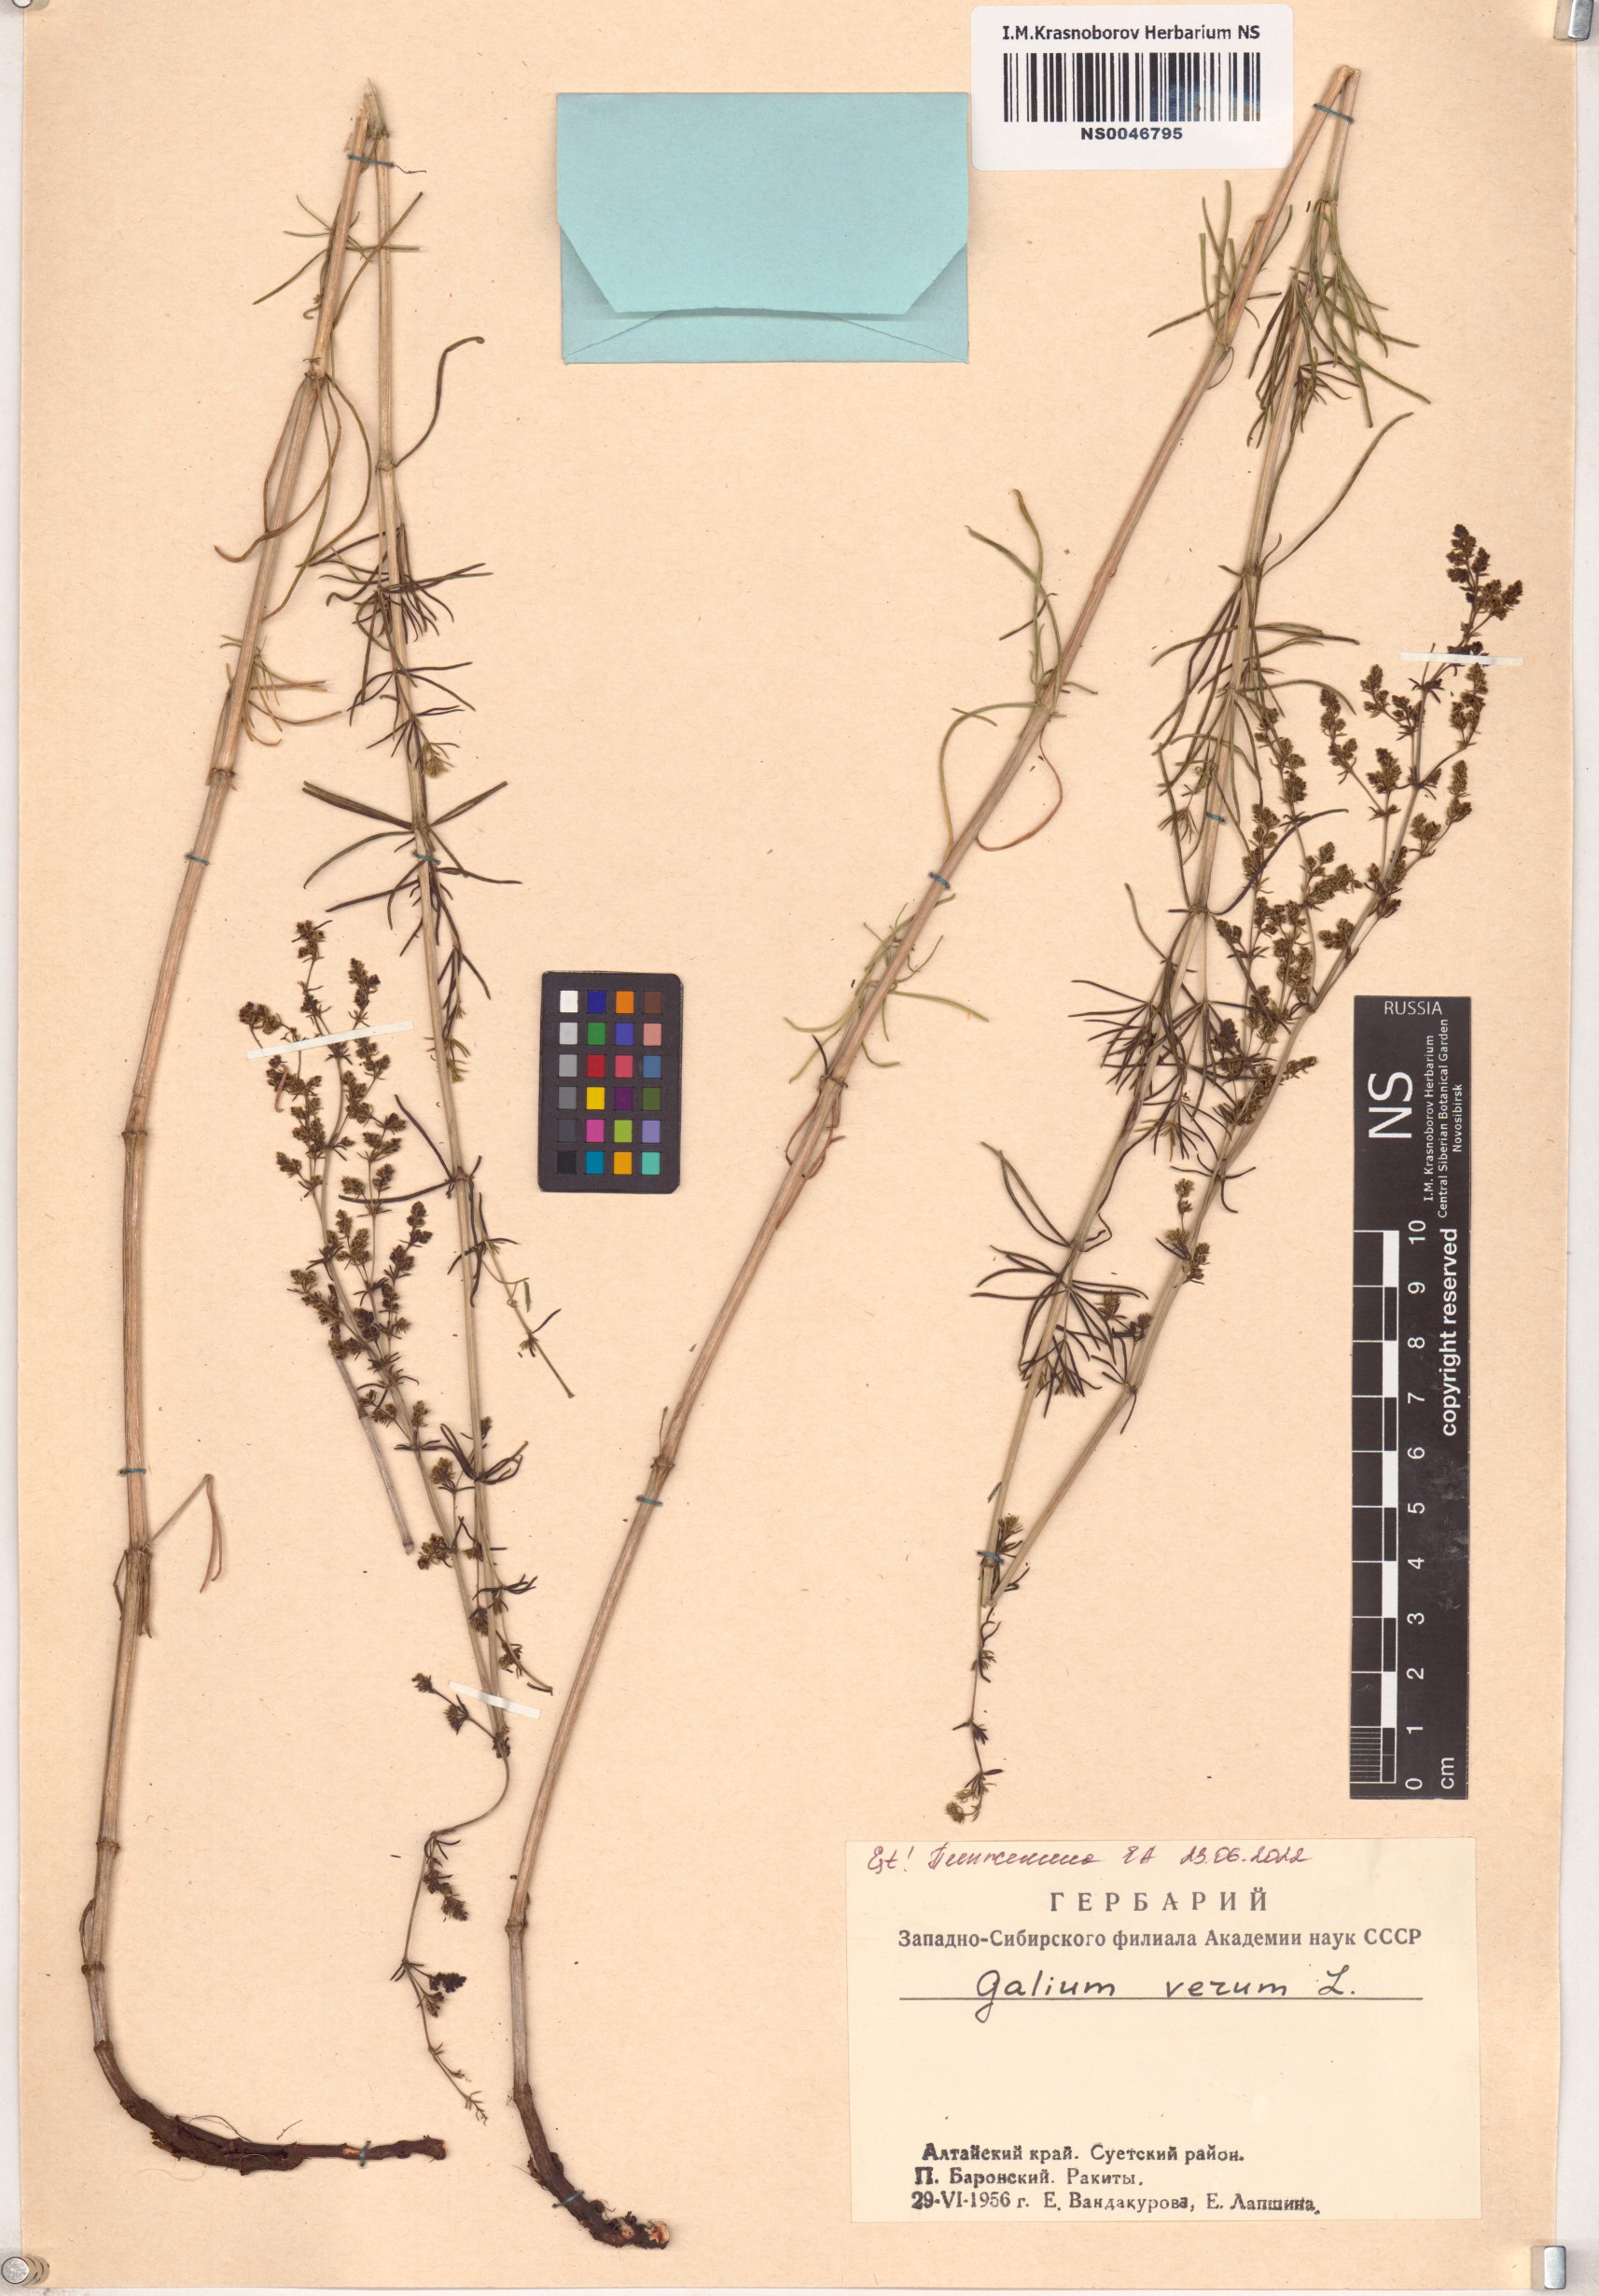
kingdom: Plantae
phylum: Tracheophyta
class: Magnoliopsida
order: Gentianales
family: Rubiaceae
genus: Galium
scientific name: Galium verum
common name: Lady's bedstraw
